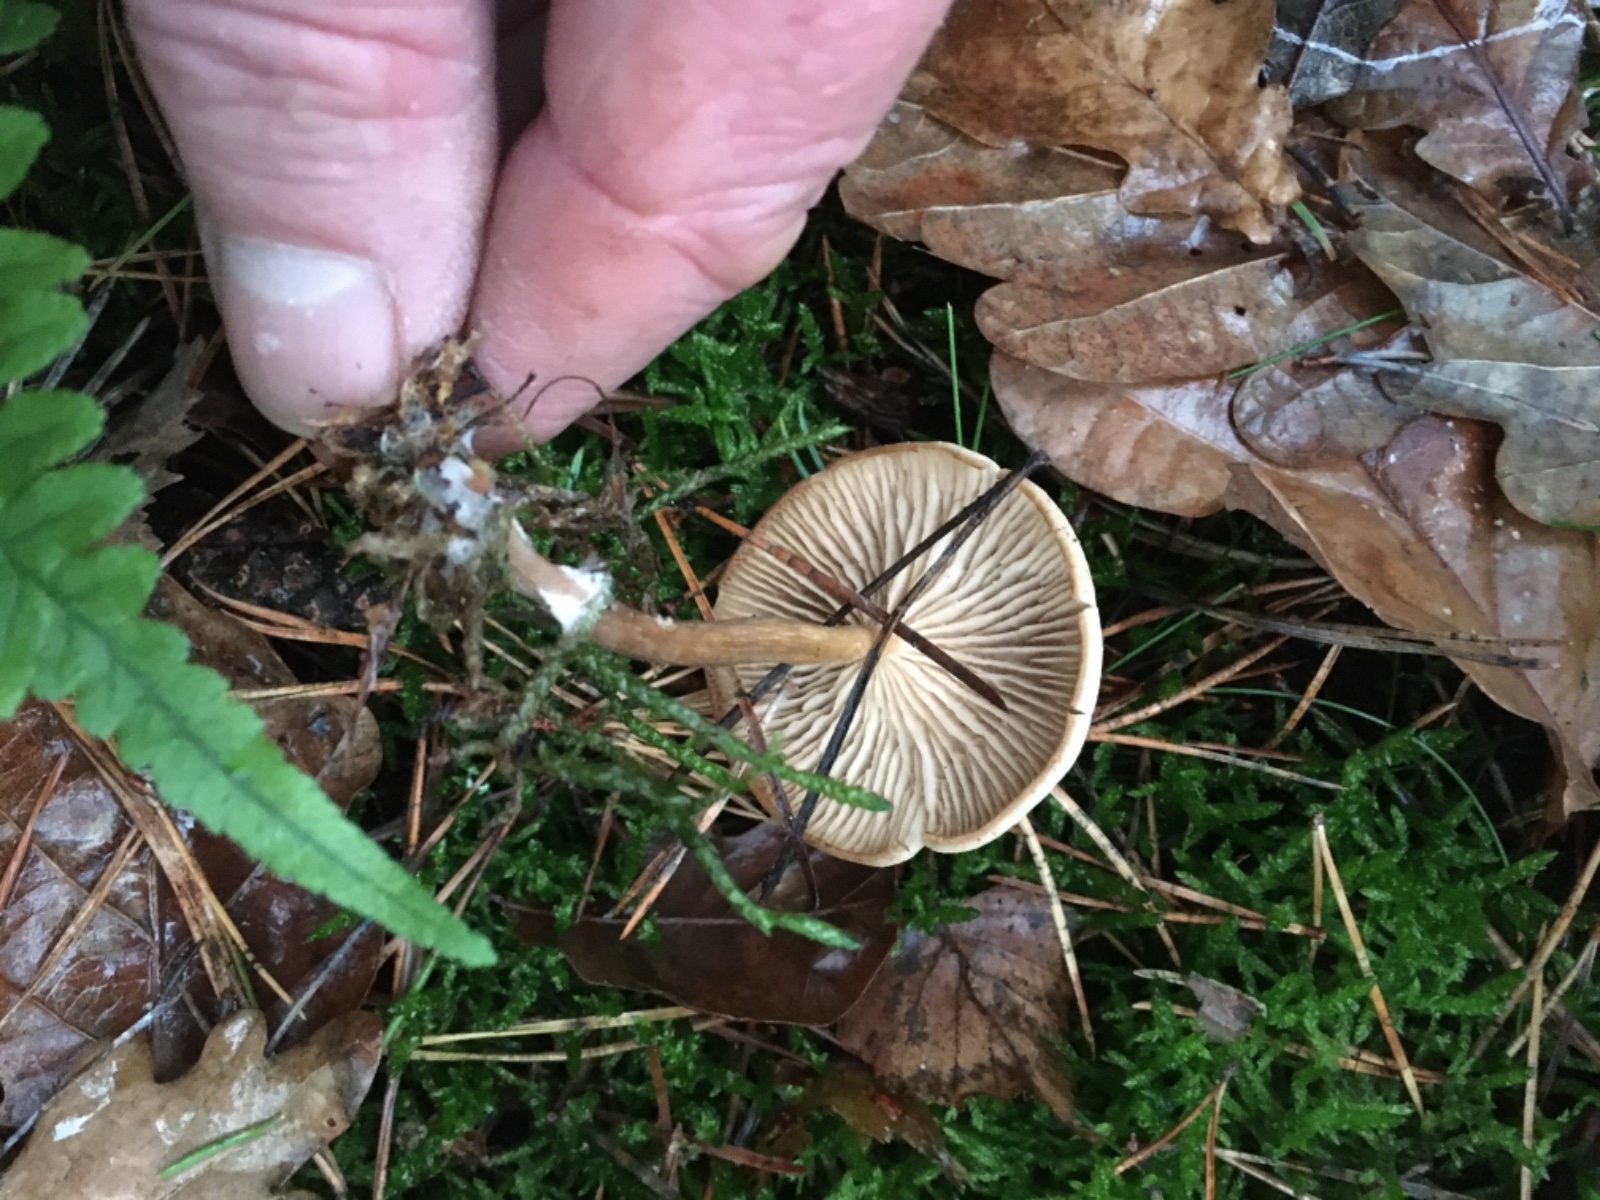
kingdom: Fungi
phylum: Basidiomycota
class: Agaricomycetes
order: Agaricales
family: Omphalotaceae
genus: Collybiopsis
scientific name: Collybiopsis peronata
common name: bestøvlet fladhat
